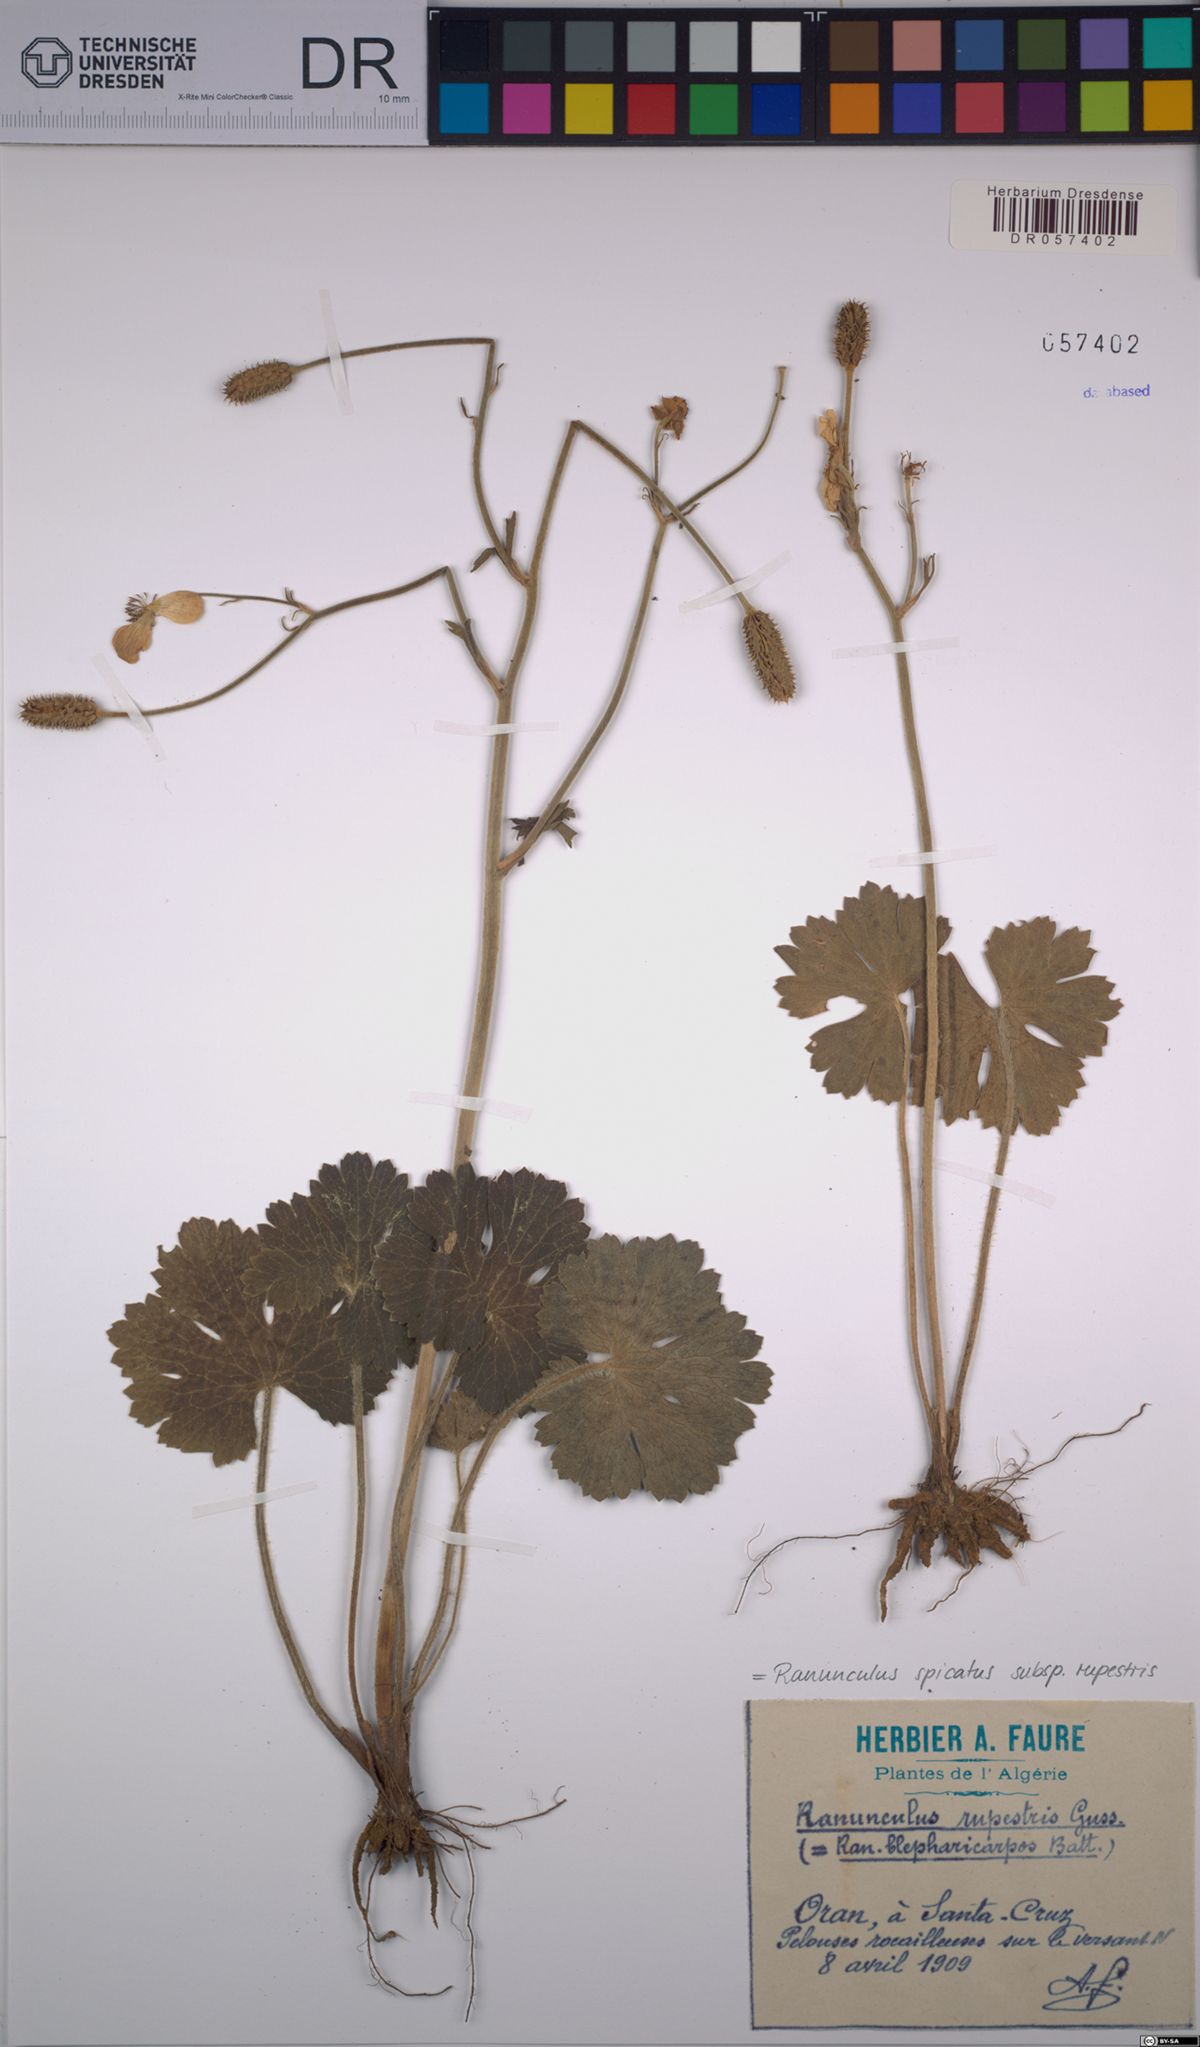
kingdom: Plantae
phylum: Tracheophyta
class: Magnoliopsida
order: Ranunculales
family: Ranunculaceae
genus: Ranunculus
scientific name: Ranunculus spicatus
